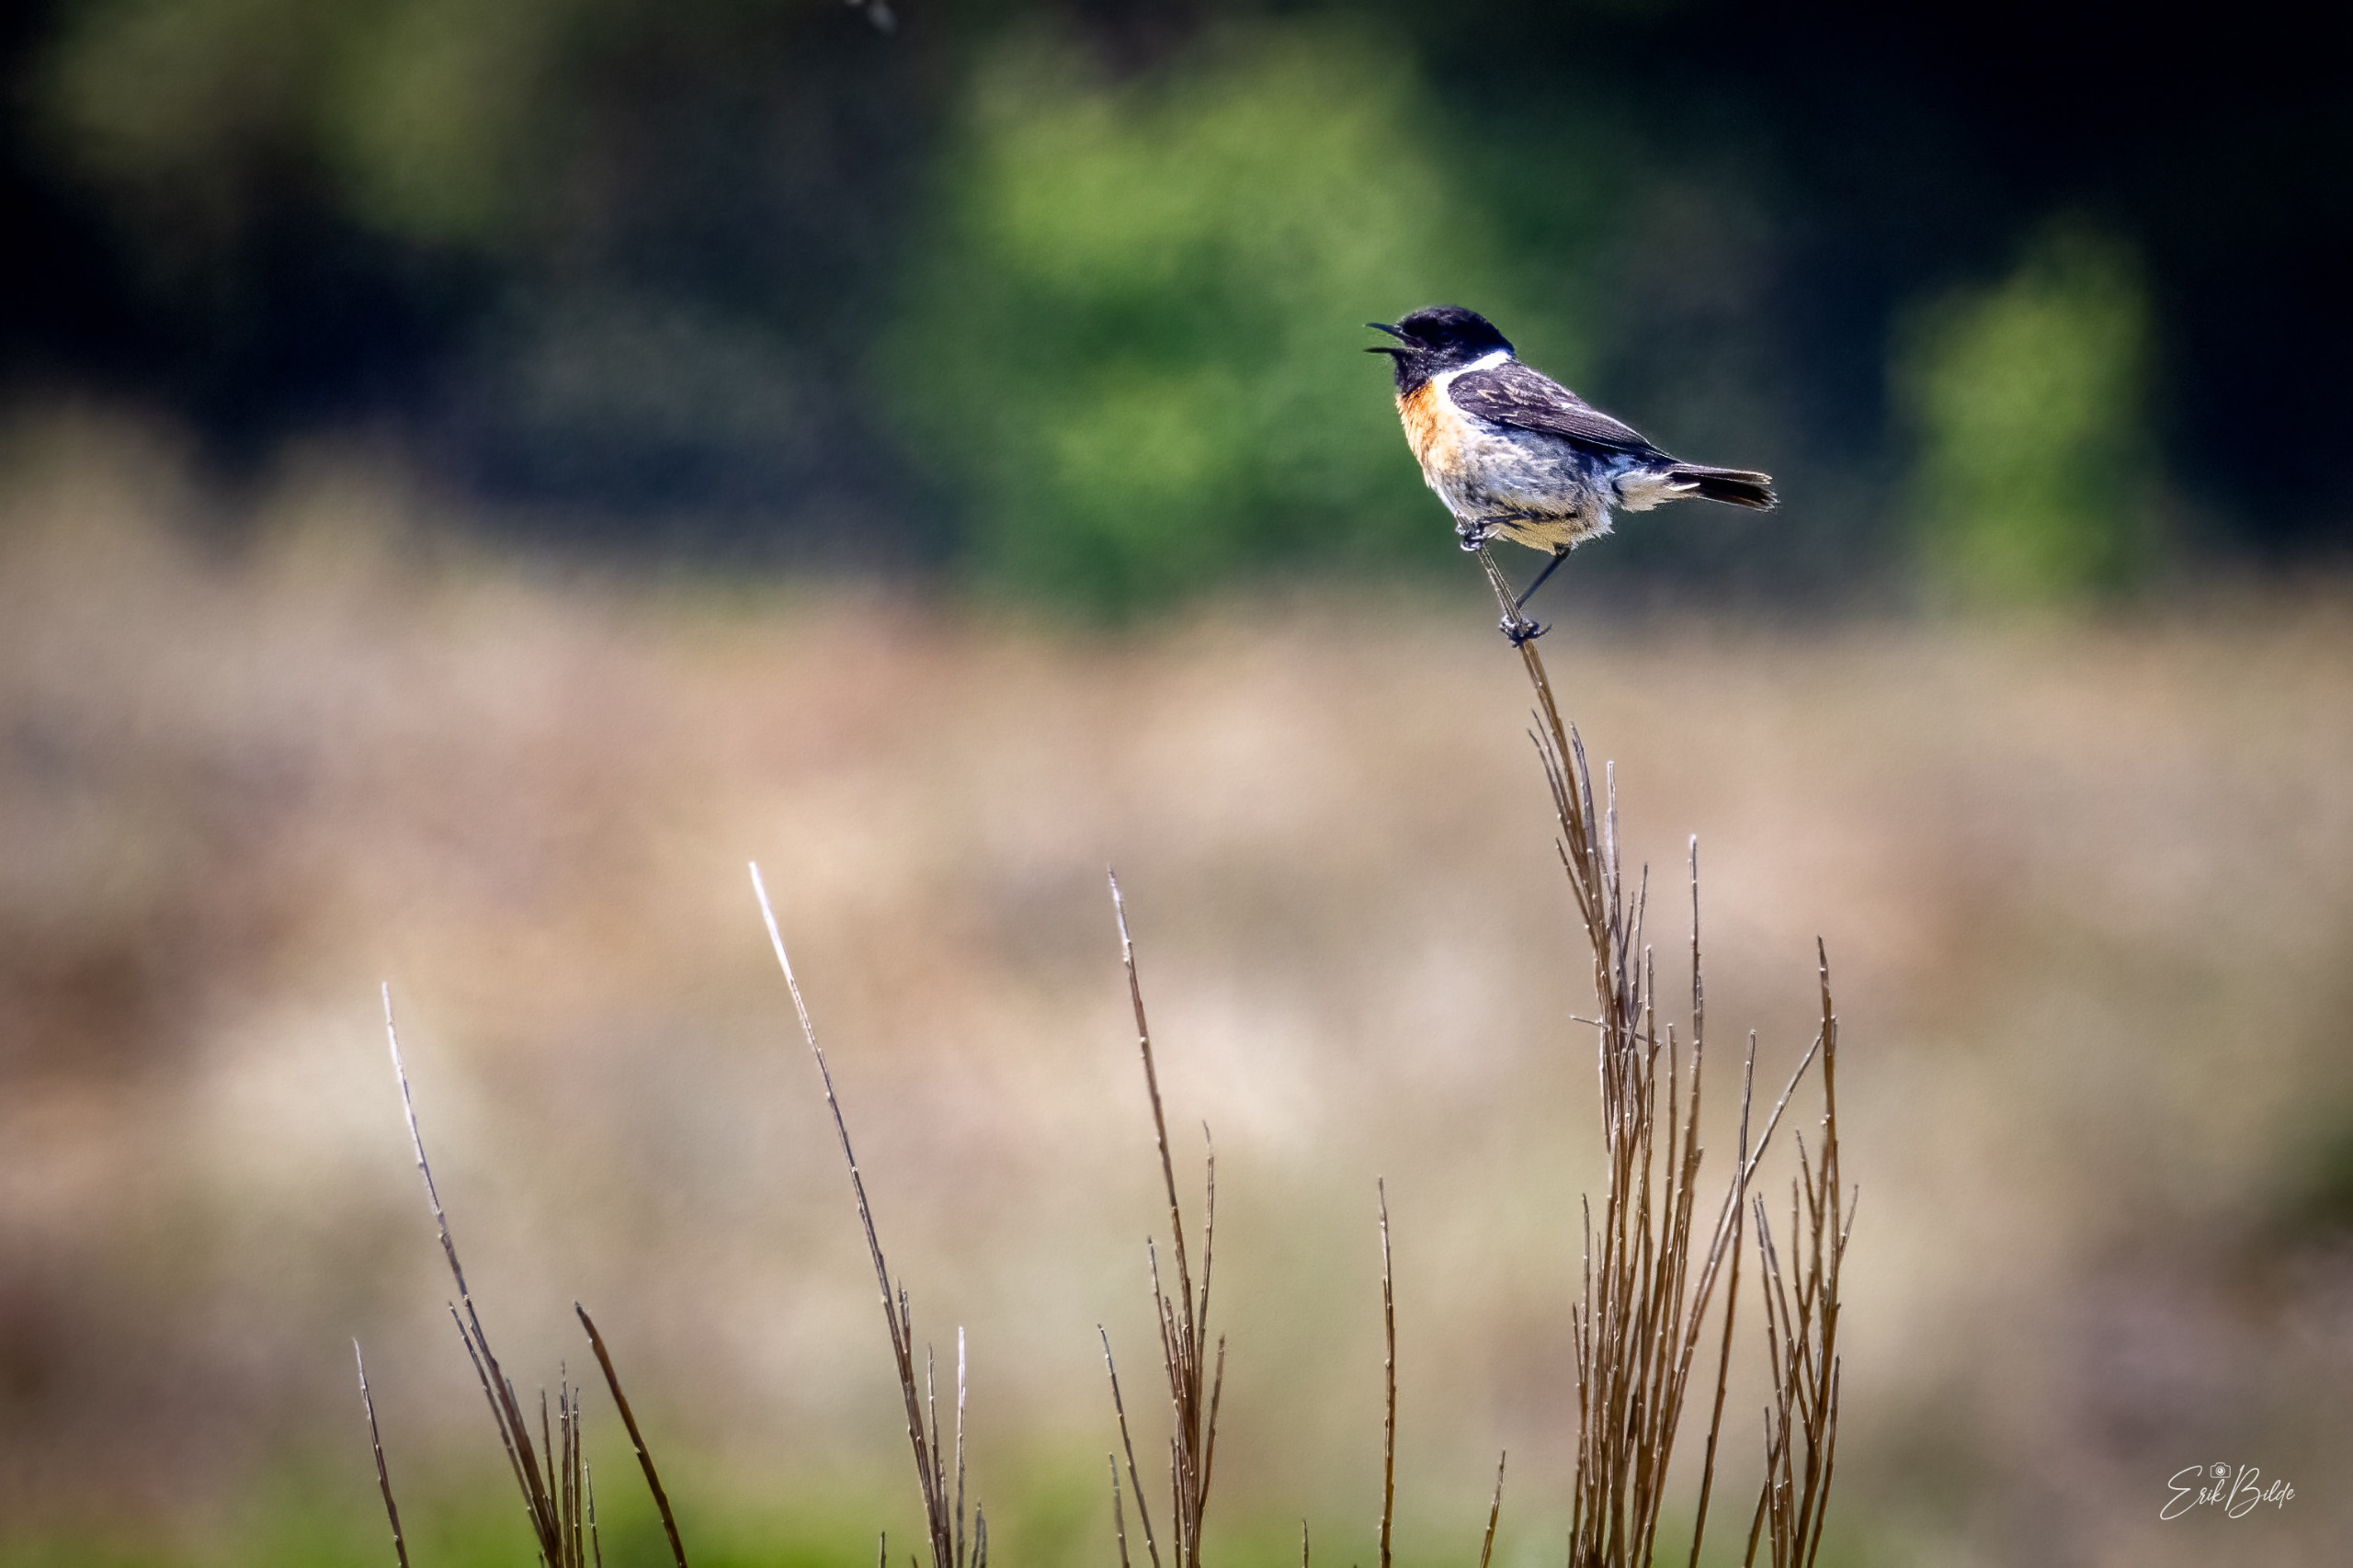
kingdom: Animalia
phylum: Chordata
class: Aves
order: Passeriformes
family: Muscicapidae
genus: Saxicola
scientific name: Saxicola rubicola
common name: Sortstrubet bynkefugl
